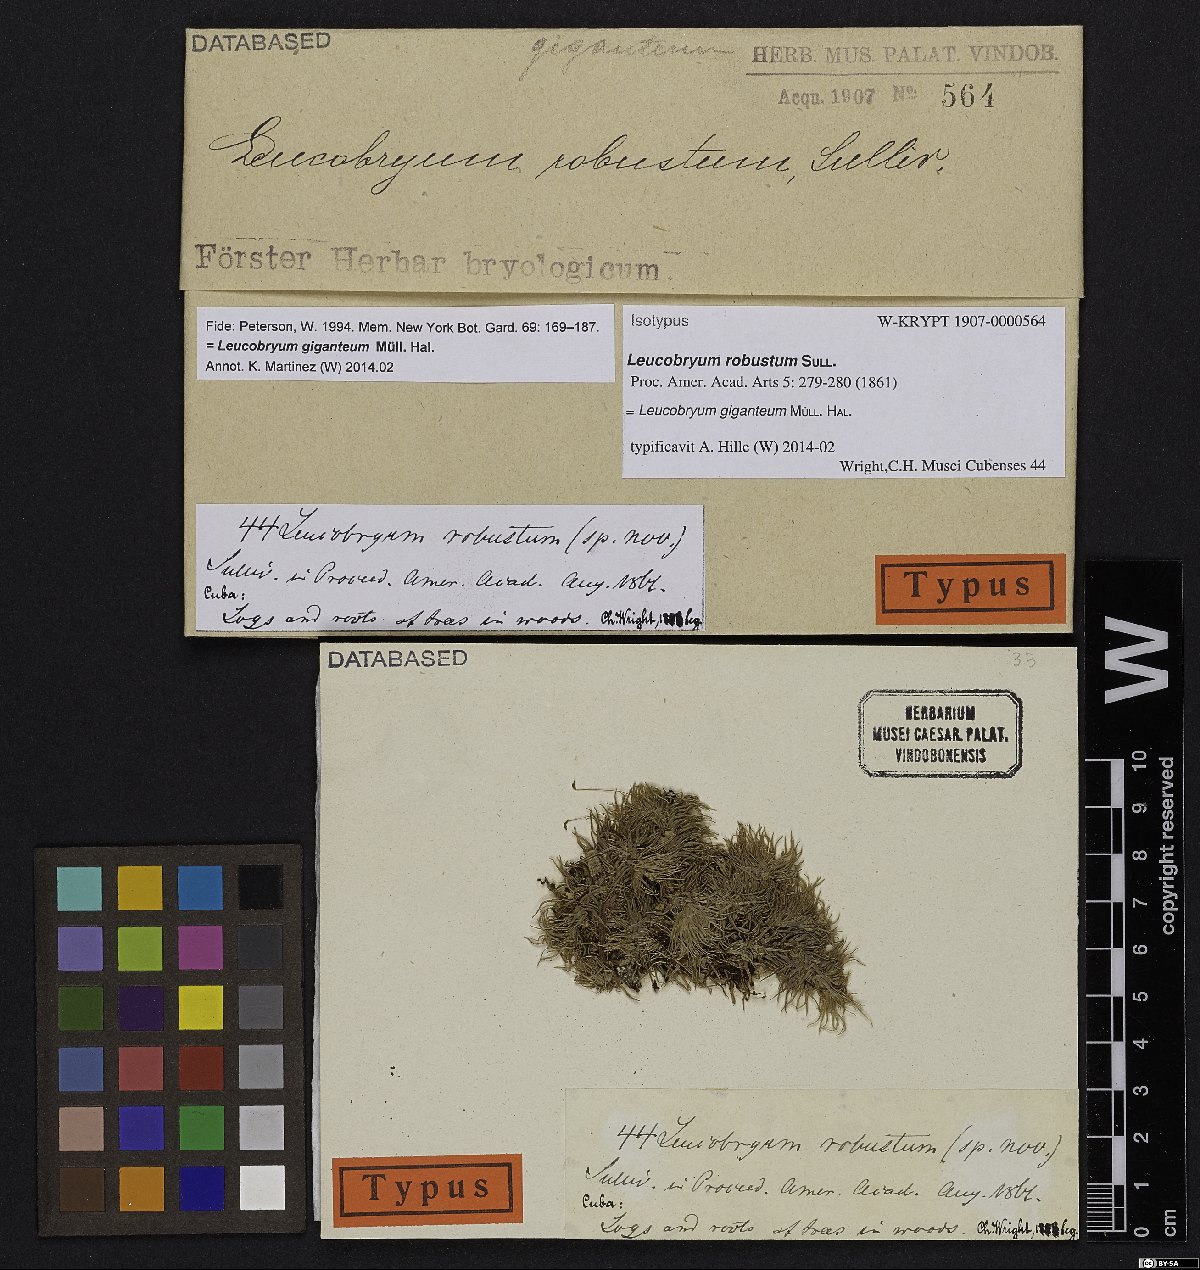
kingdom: Plantae
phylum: Bryophyta
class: Bryopsida
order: Dicranales
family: Leucobryaceae
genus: Leucobryum
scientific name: Leucobryum giganteum
